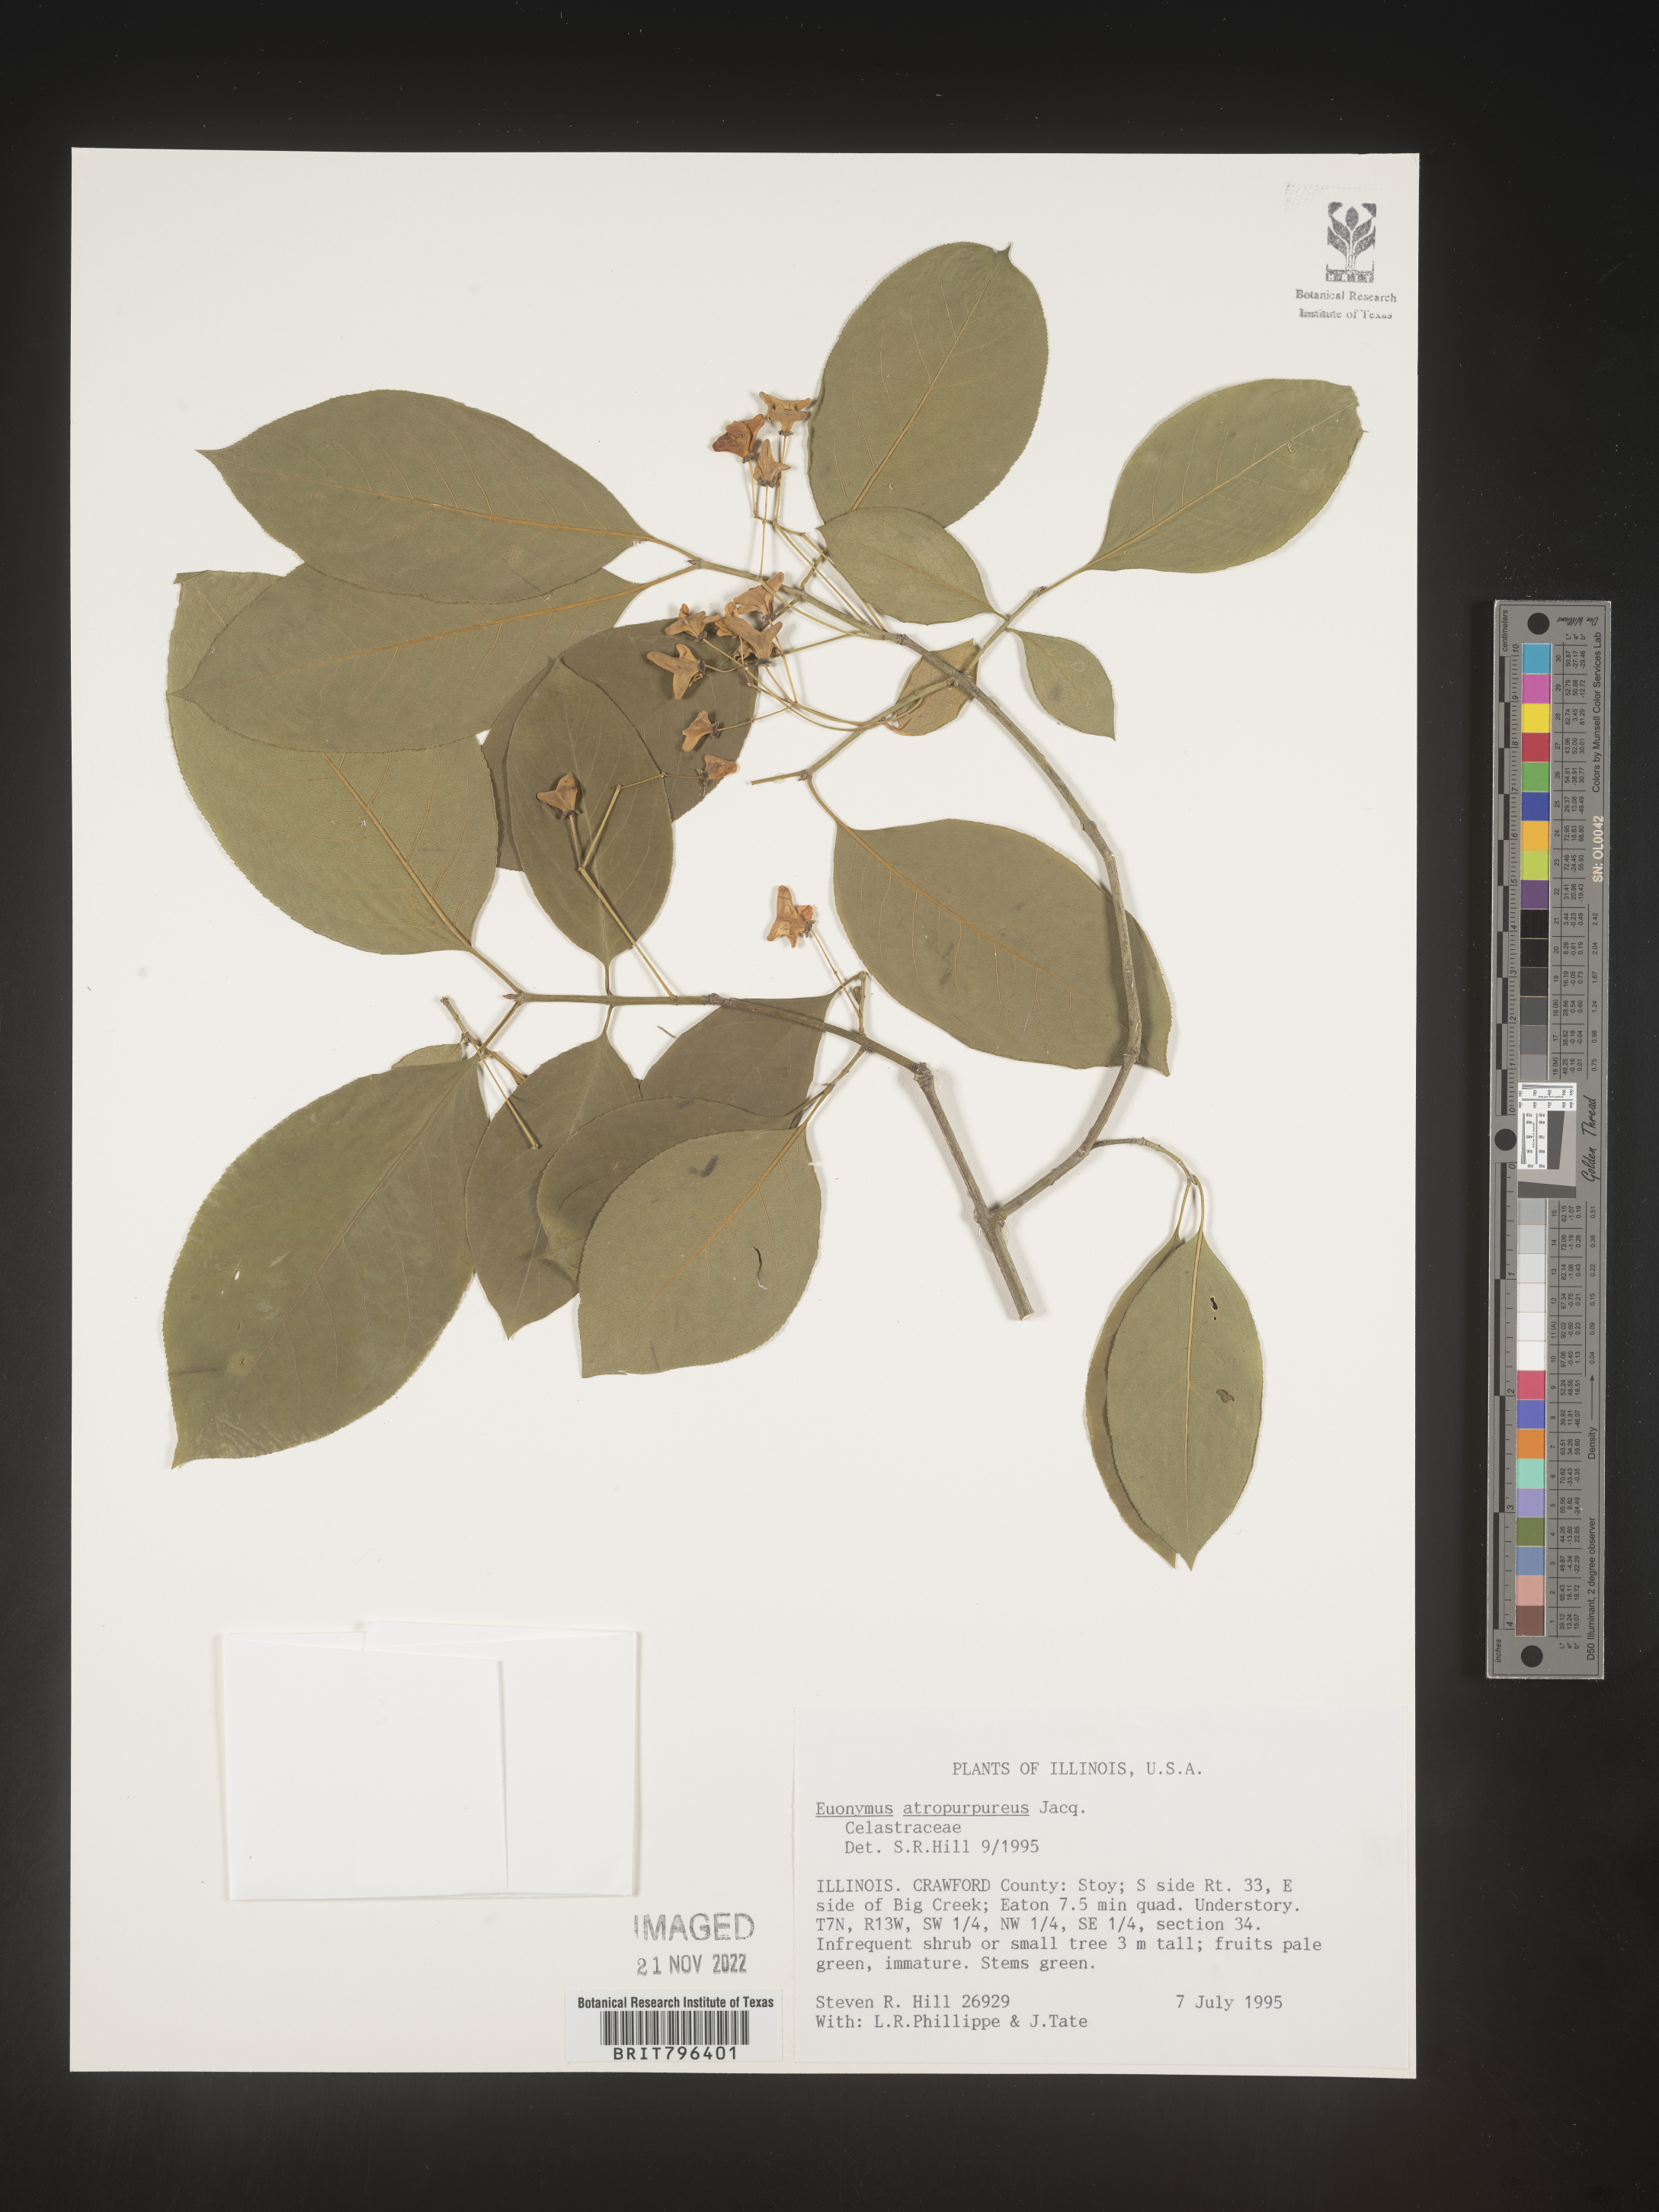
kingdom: Plantae
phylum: Tracheophyta
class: Magnoliopsida
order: Celastrales
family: Celastraceae
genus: Euonymus
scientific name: Euonymus atropurpureus
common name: Eastern wahoo
